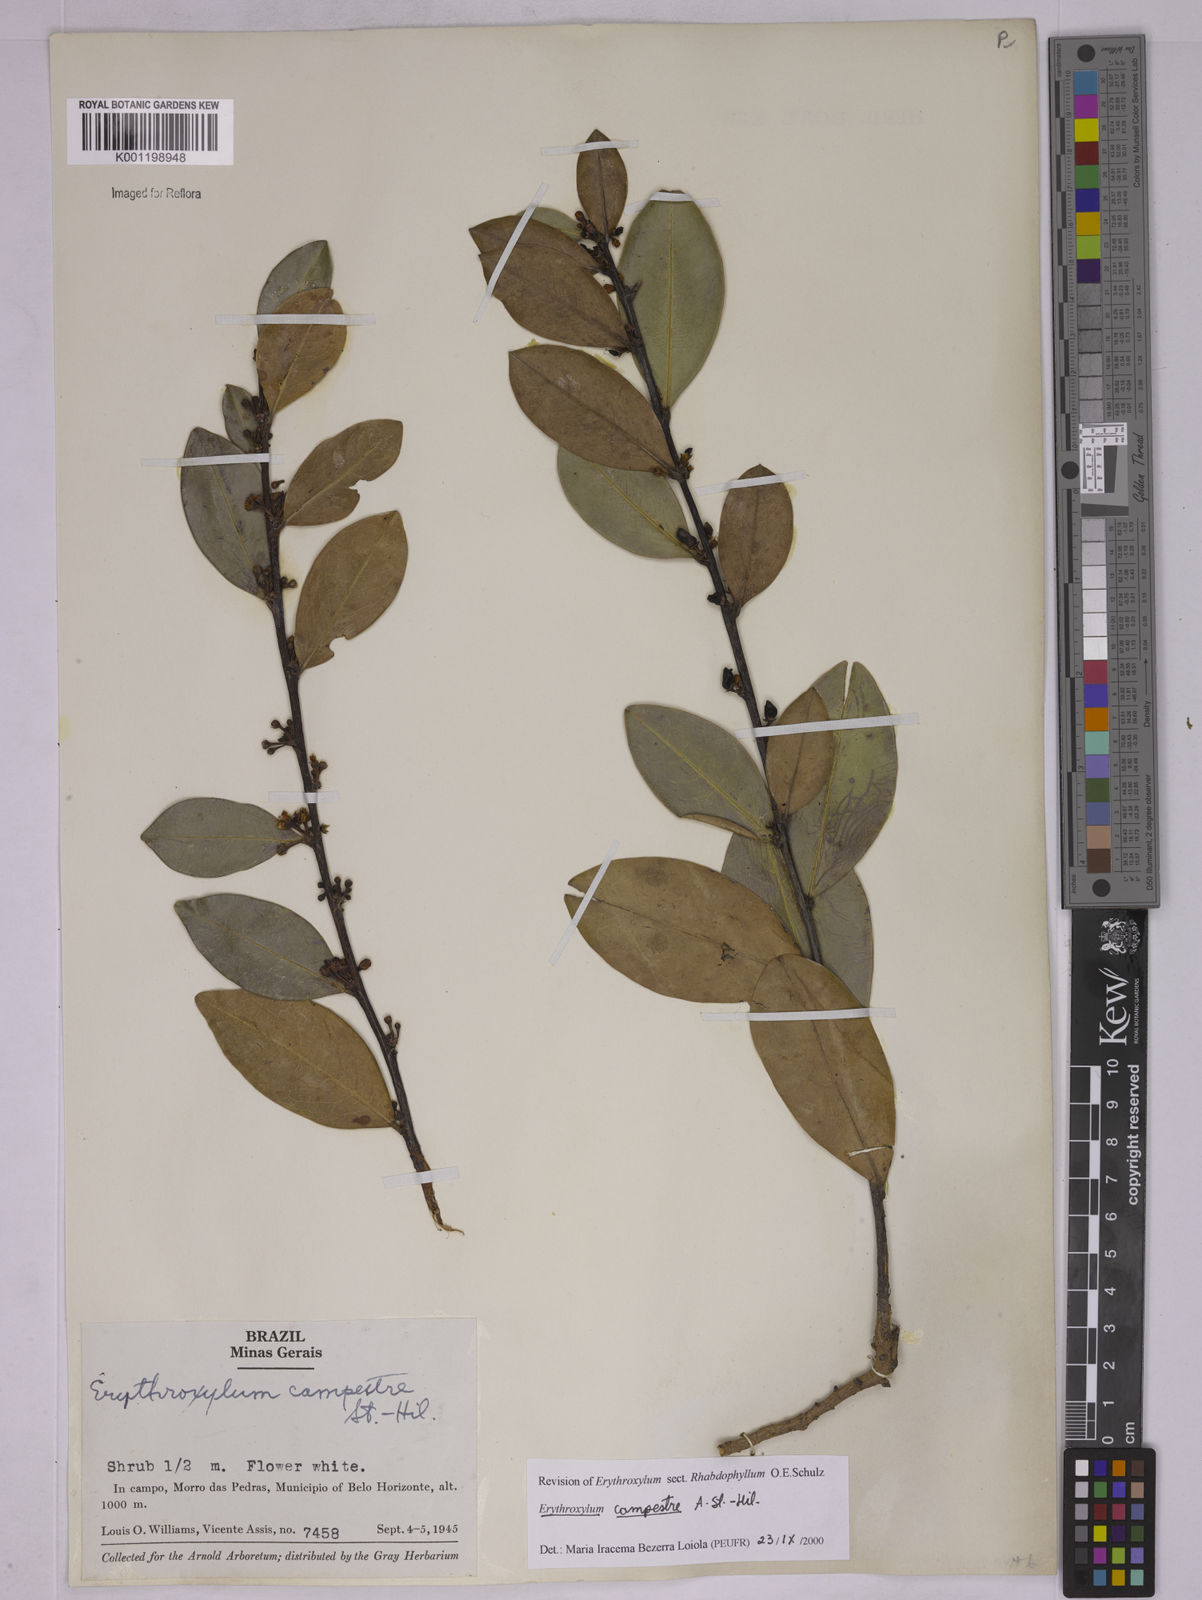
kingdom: Plantae
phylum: Tracheophyta
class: Magnoliopsida
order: Malpighiales
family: Erythroxylaceae
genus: Erythroxylum
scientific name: Erythroxylum campestre
